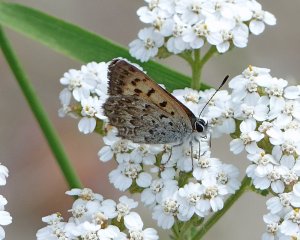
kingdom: Animalia
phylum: Arthropoda
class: Insecta
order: Lepidoptera
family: Lycaenidae
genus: Lycaena
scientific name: Lycaena mariposa
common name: Mariposa Copper
